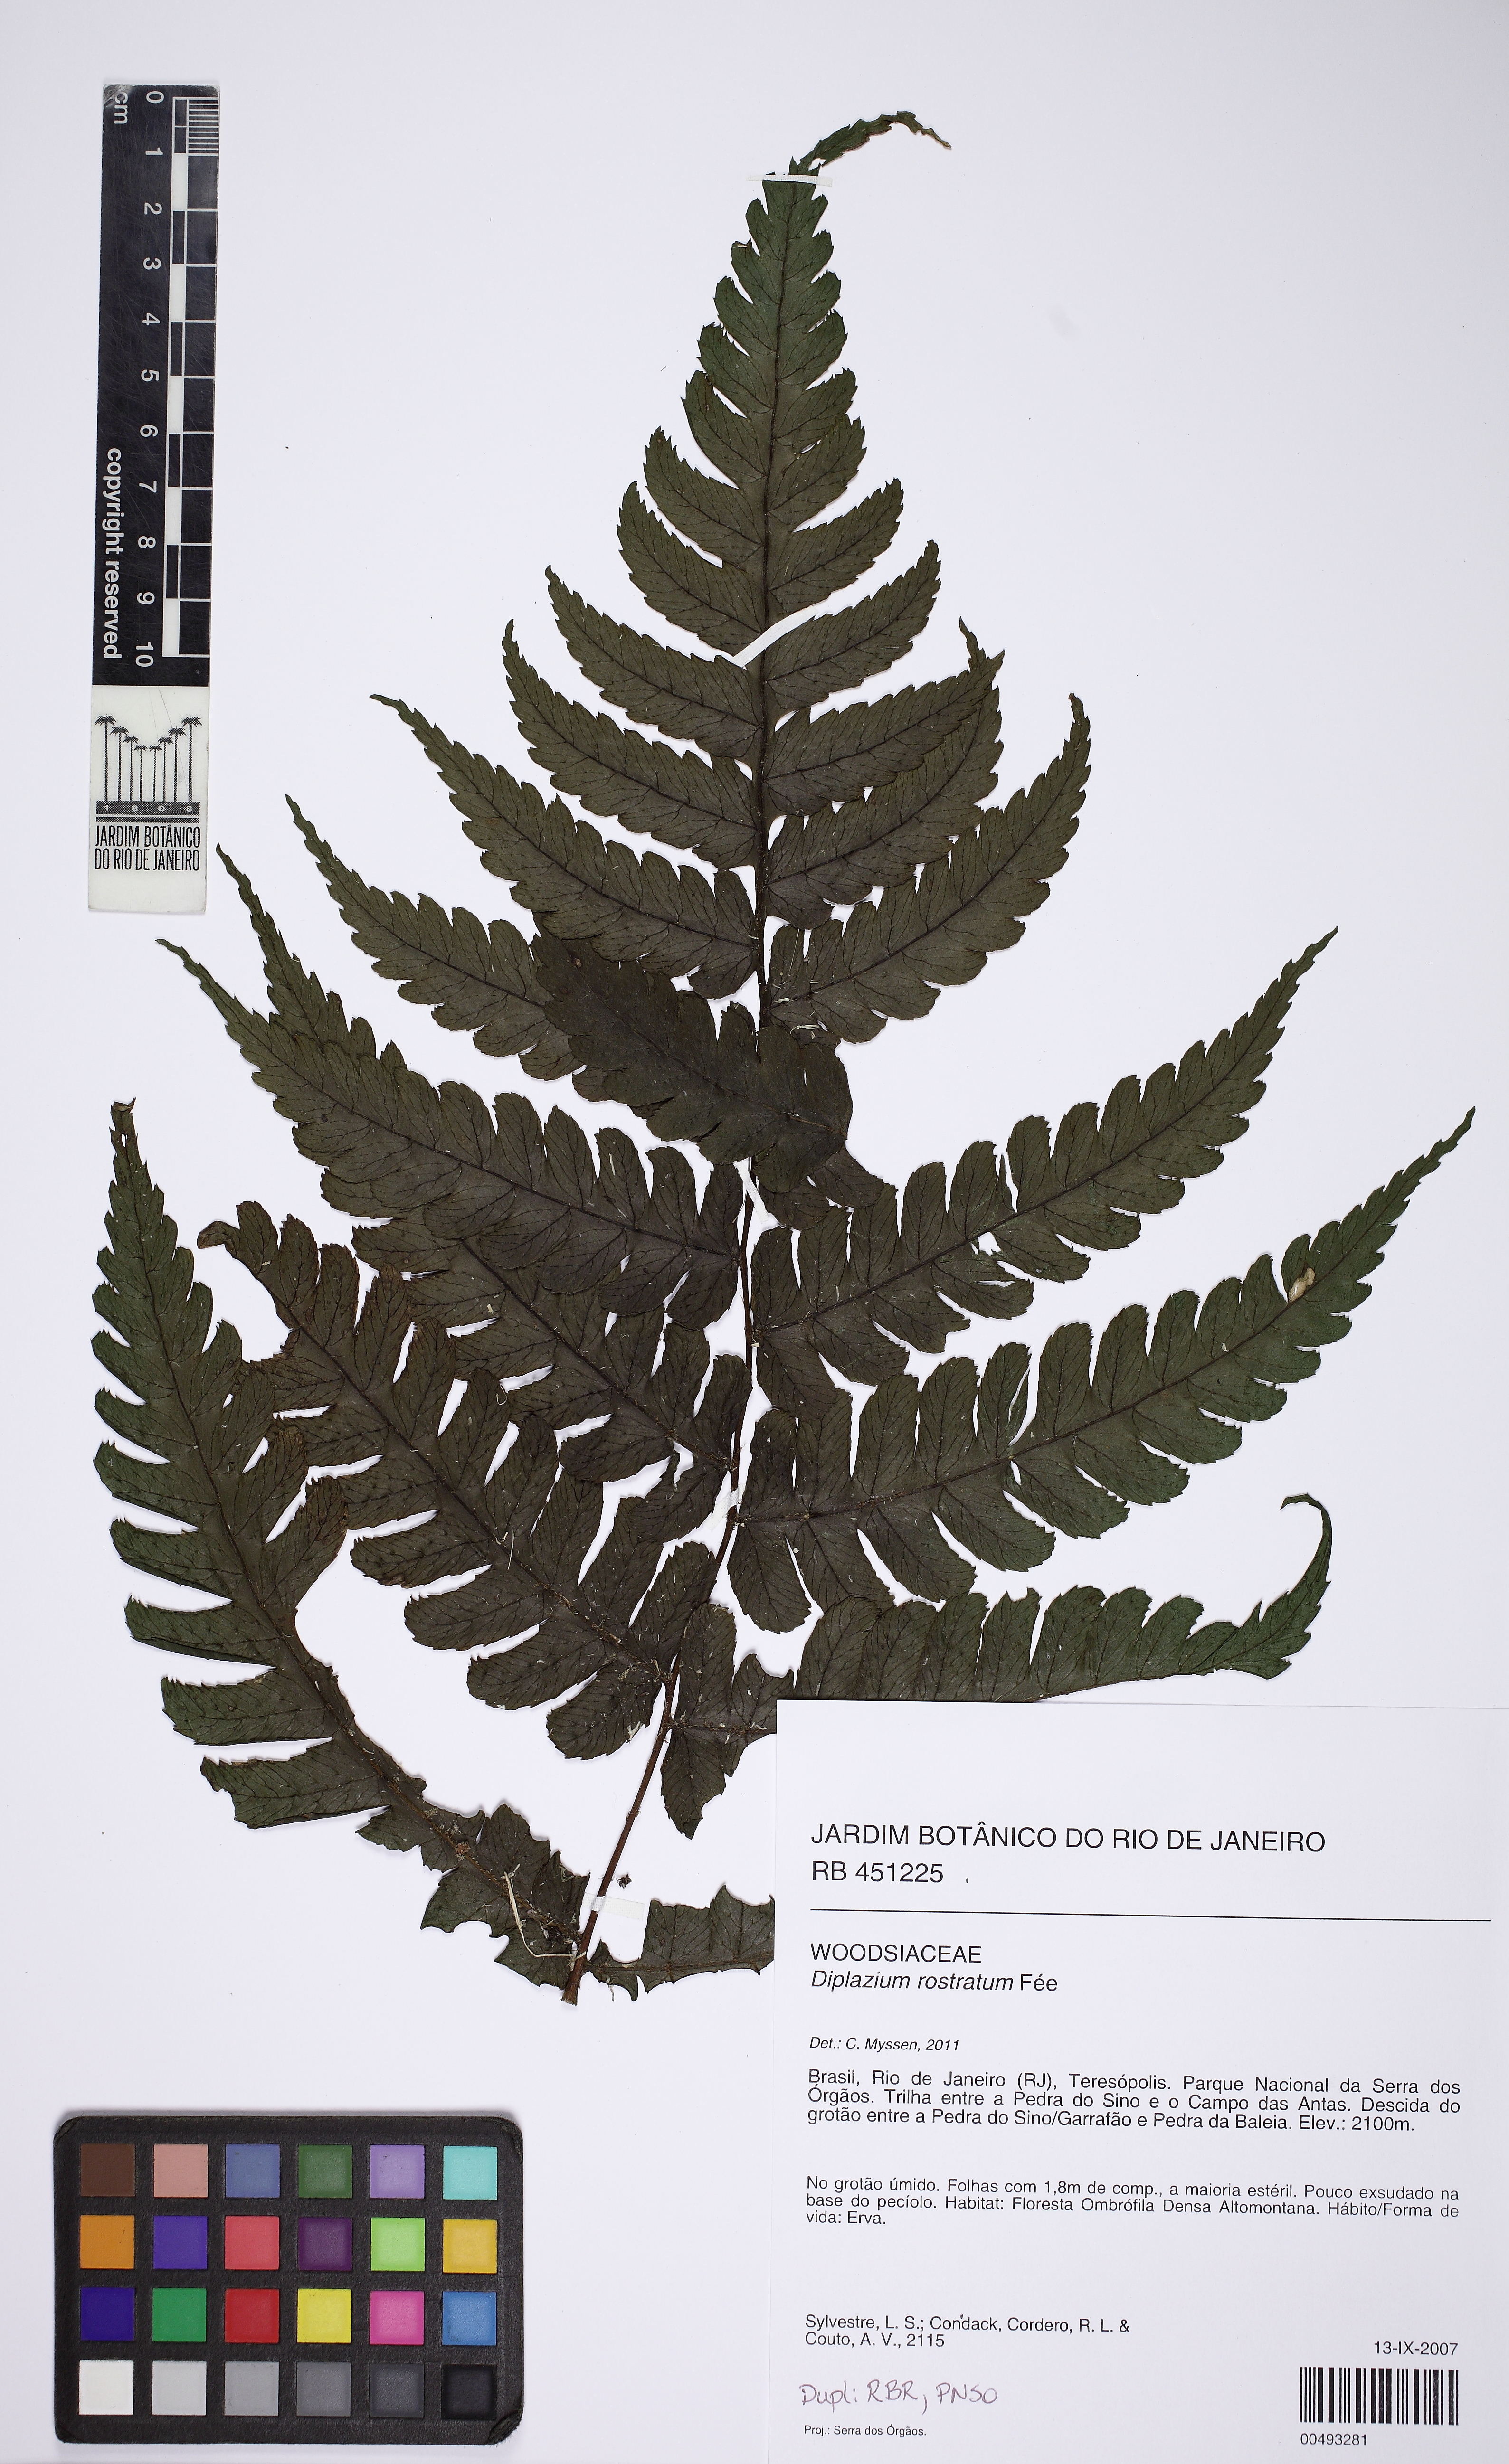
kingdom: Plantae
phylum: Tracheophyta
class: Polypodiopsida
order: Polypodiales
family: Athyriaceae
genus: Diplazium
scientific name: Diplazium rostratum
